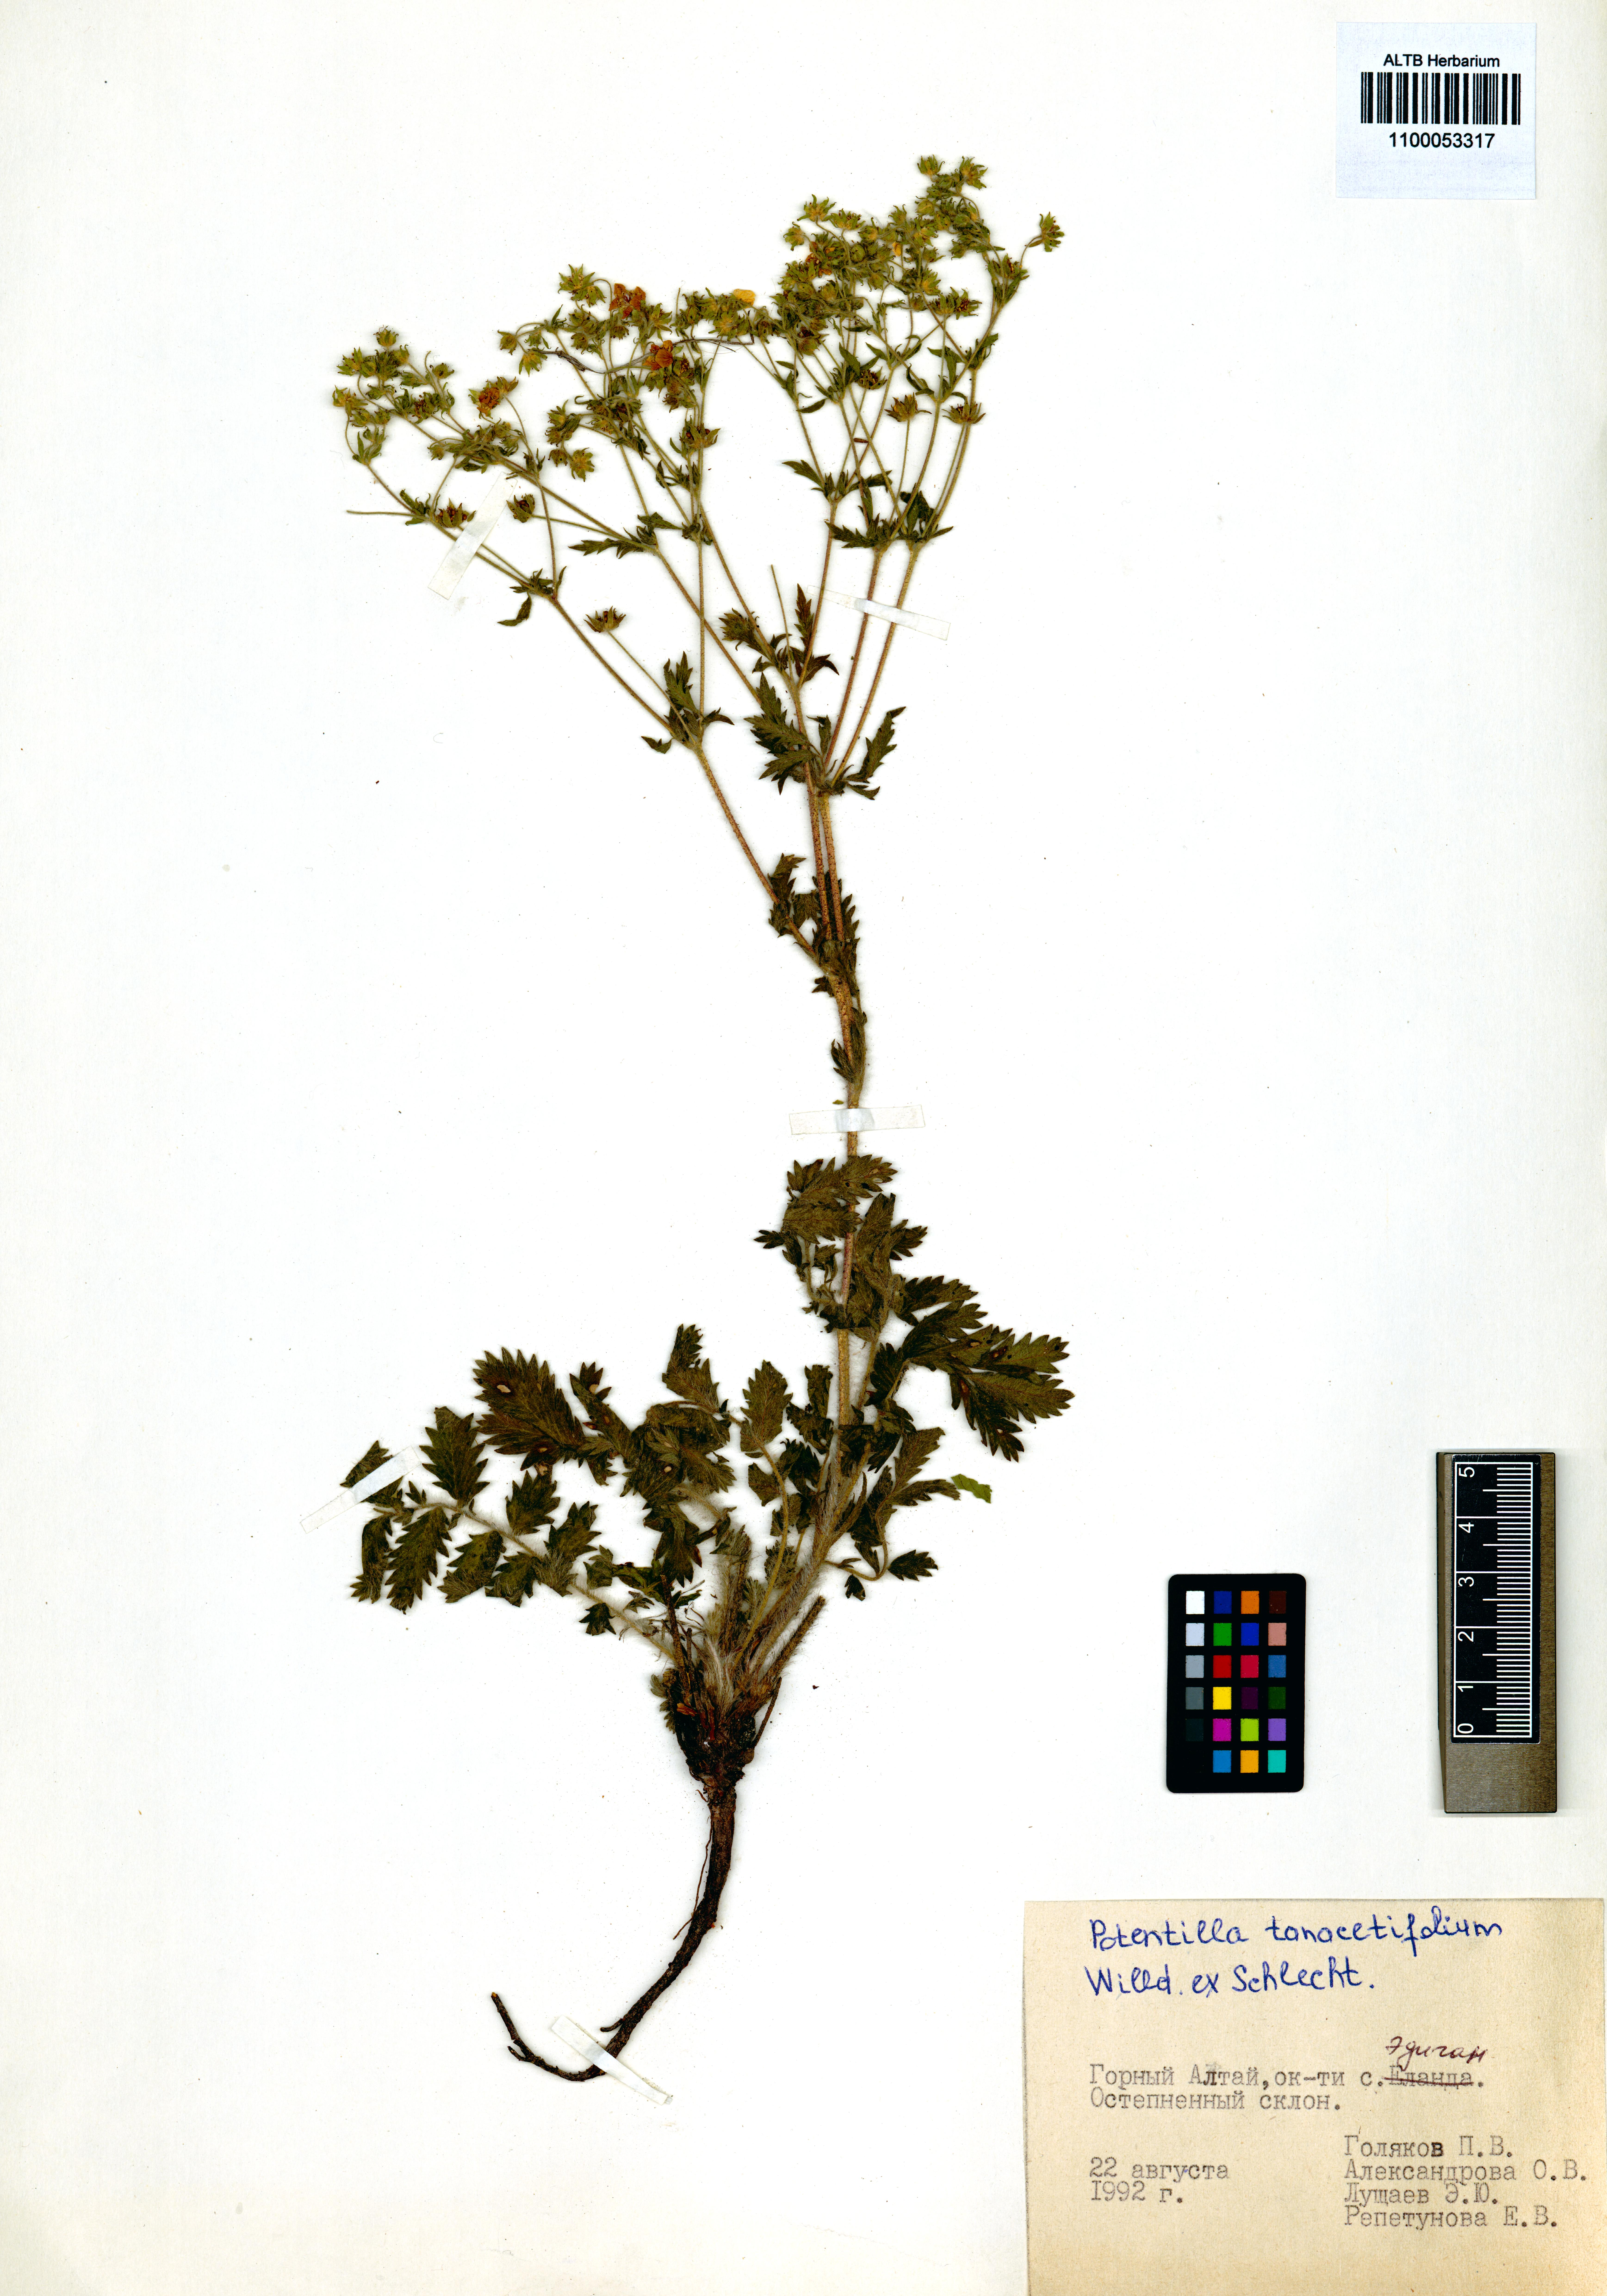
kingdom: Plantae
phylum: Tracheophyta
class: Magnoliopsida
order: Rosales
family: Rosaceae
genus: Potentilla
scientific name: Potentilla tanacetifolia
